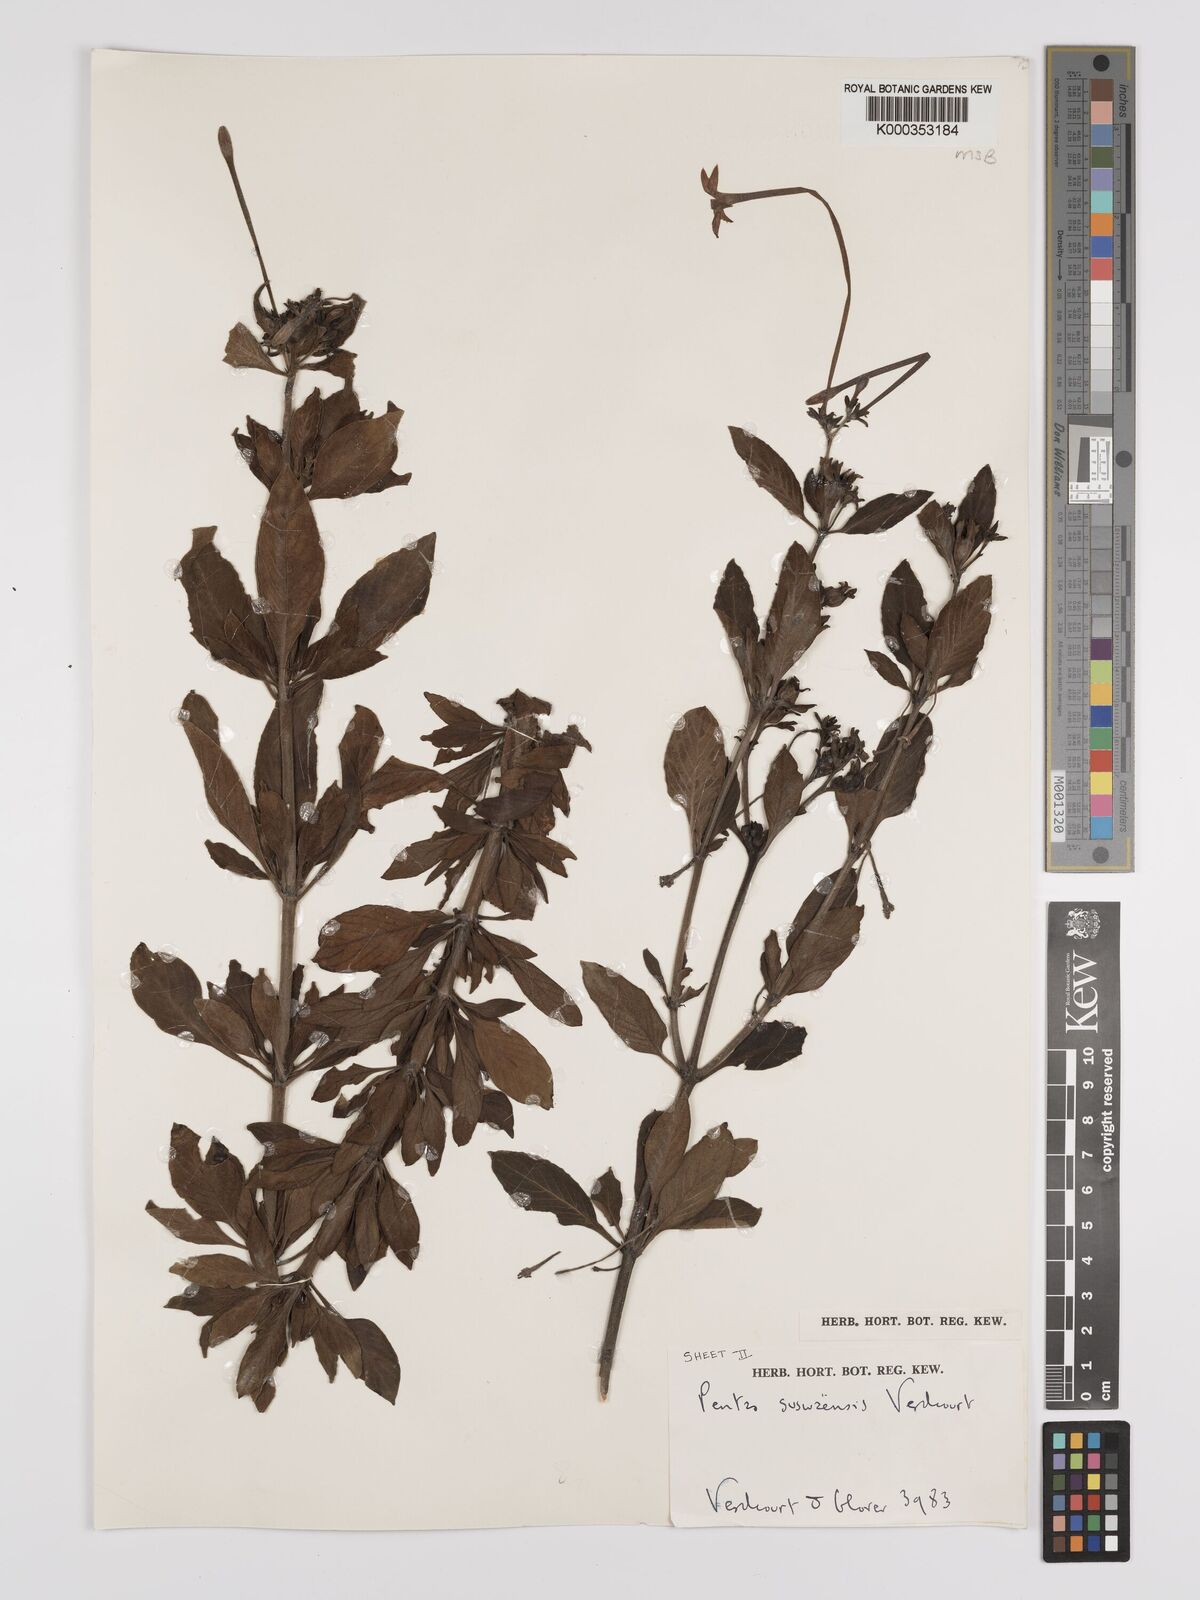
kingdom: Plantae
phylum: Tracheophyta
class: Magnoliopsida
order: Gentianales
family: Rubiaceae
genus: Pentas
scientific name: Pentas suswaensis
